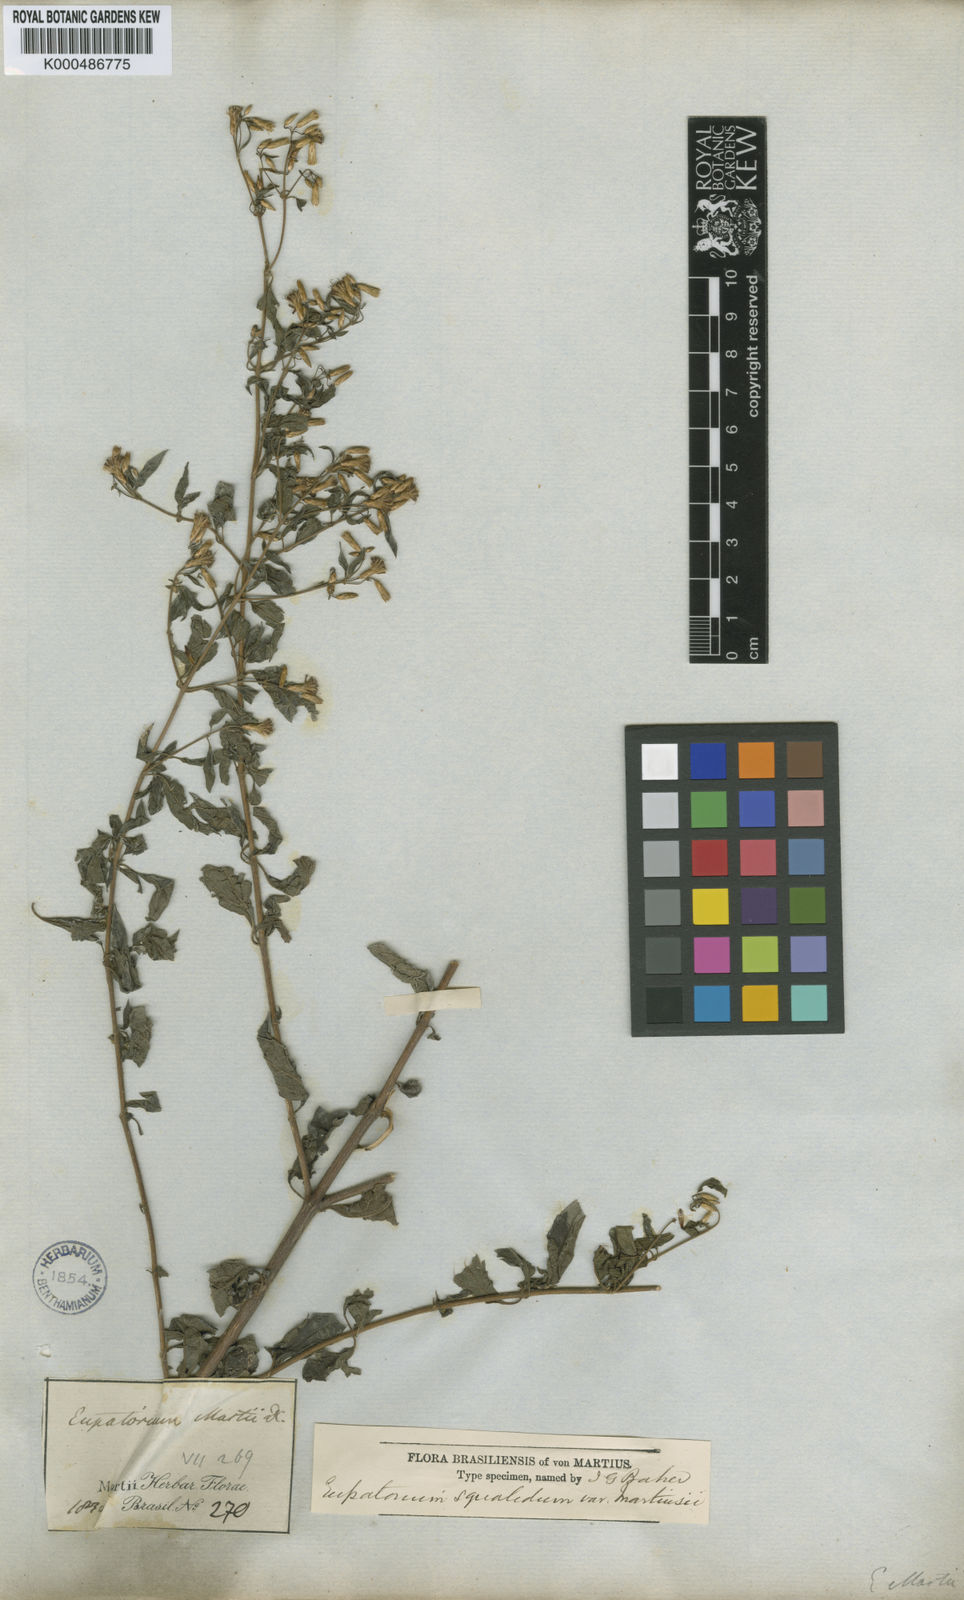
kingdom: Plantae
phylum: Tracheophyta
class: Magnoliopsida
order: Asterales
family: Asteraceae
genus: Chromolaena
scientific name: Chromolaena squalida
